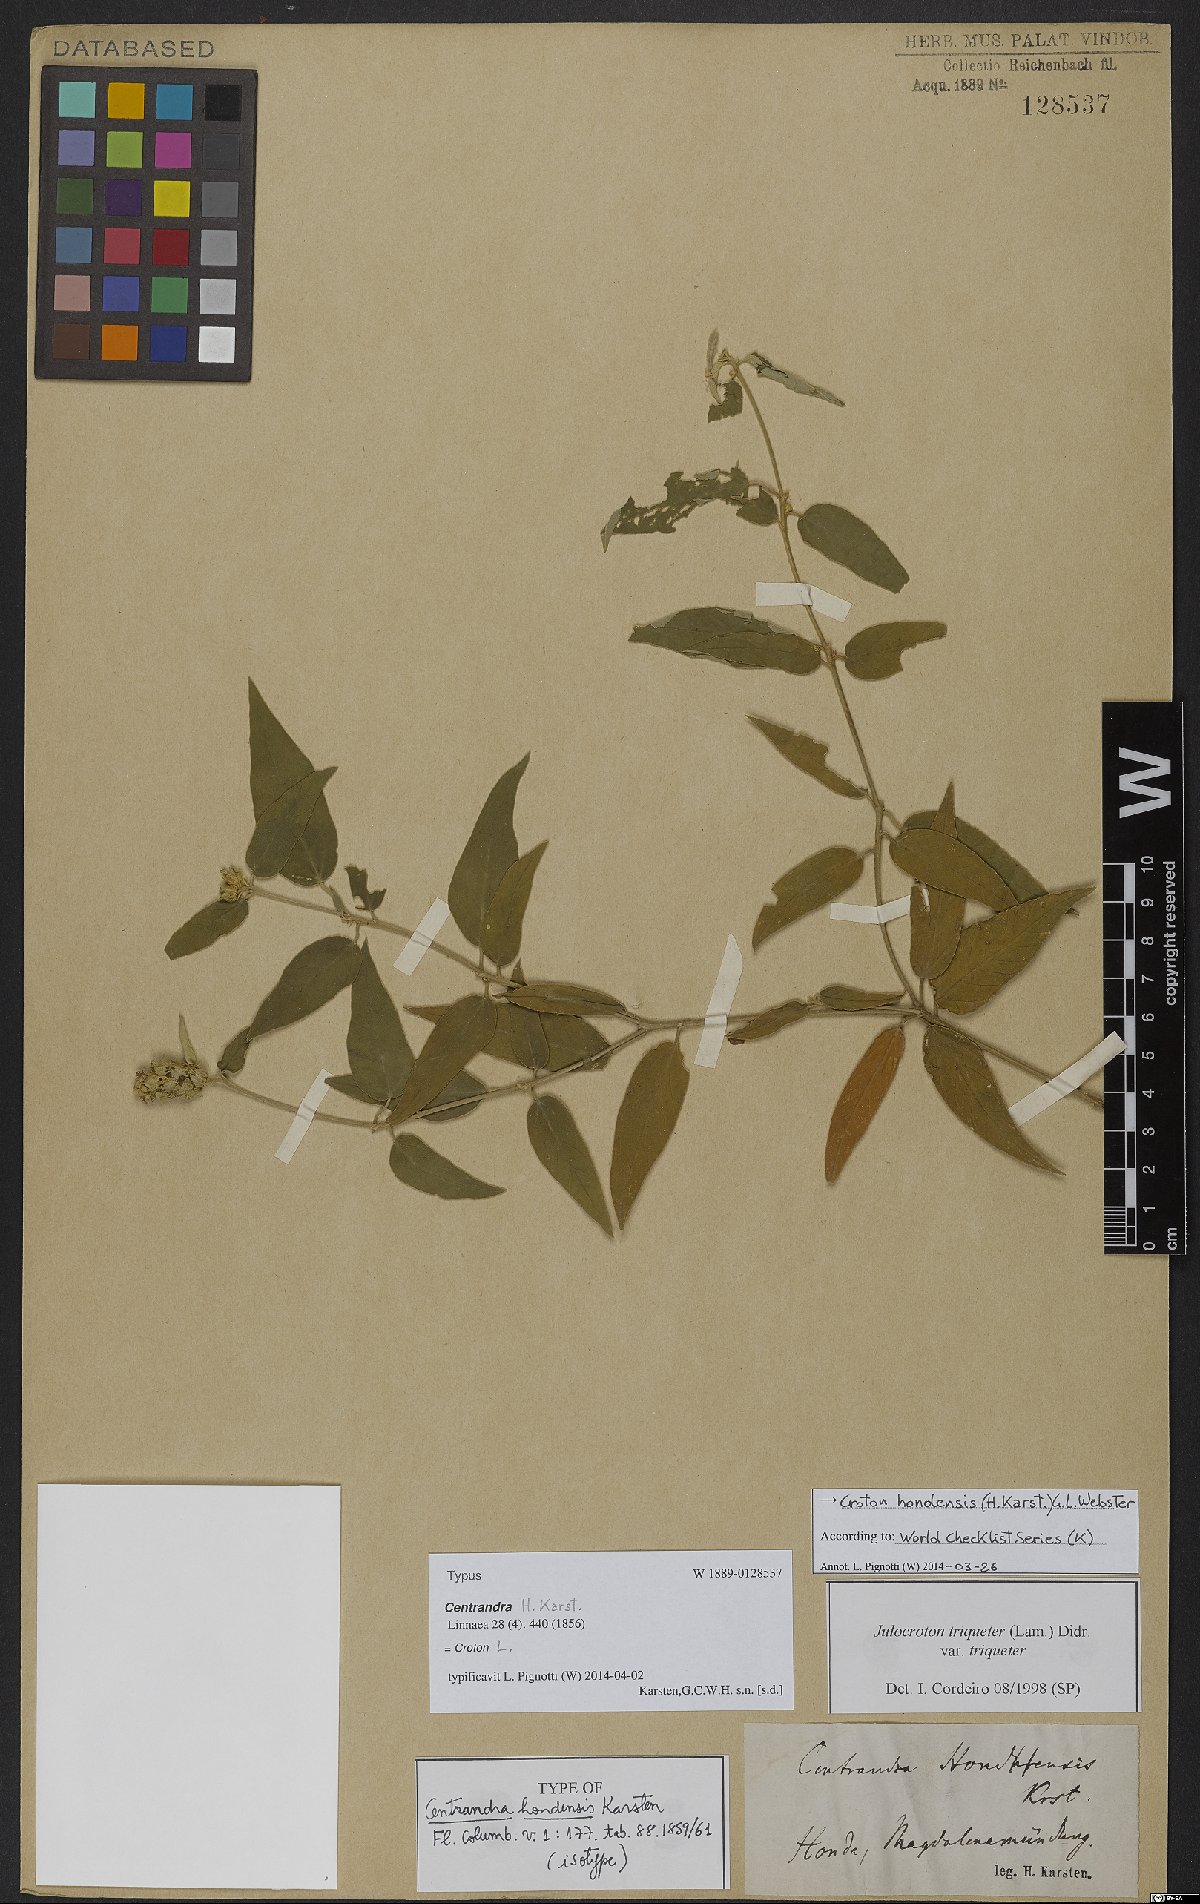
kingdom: Plantae
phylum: Tracheophyta
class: Magnoliopsida
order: Malpighiales
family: Euphorbiaceae
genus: Croton
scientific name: Croton hondensis
